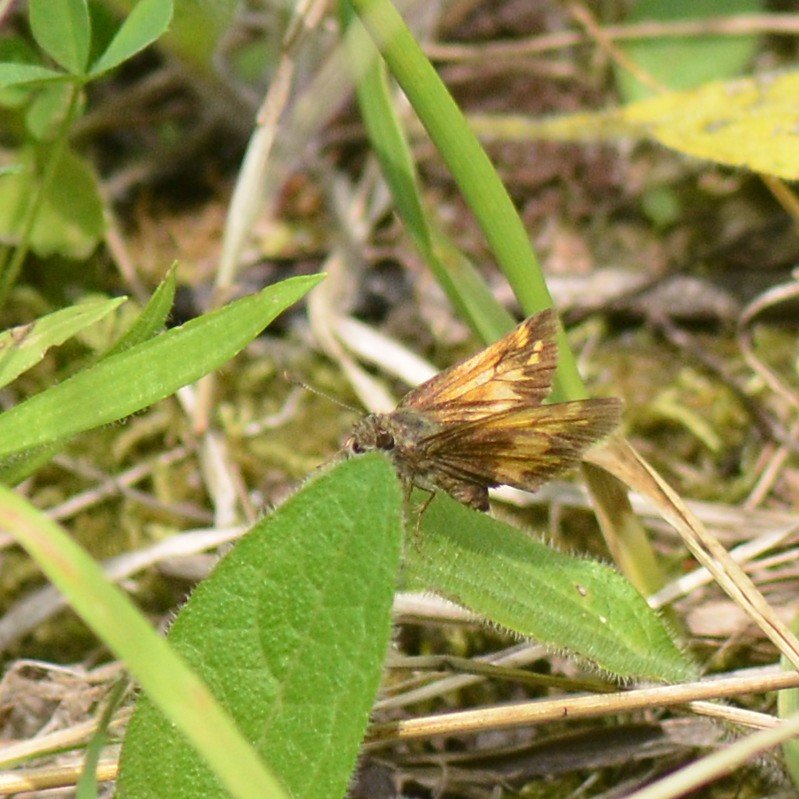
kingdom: Animalia
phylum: Arthropoda
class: Insecta
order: Lepidoptera
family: Hesperiidae
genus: Lon
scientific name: Lon hobomok
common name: Hobomok Skipper
